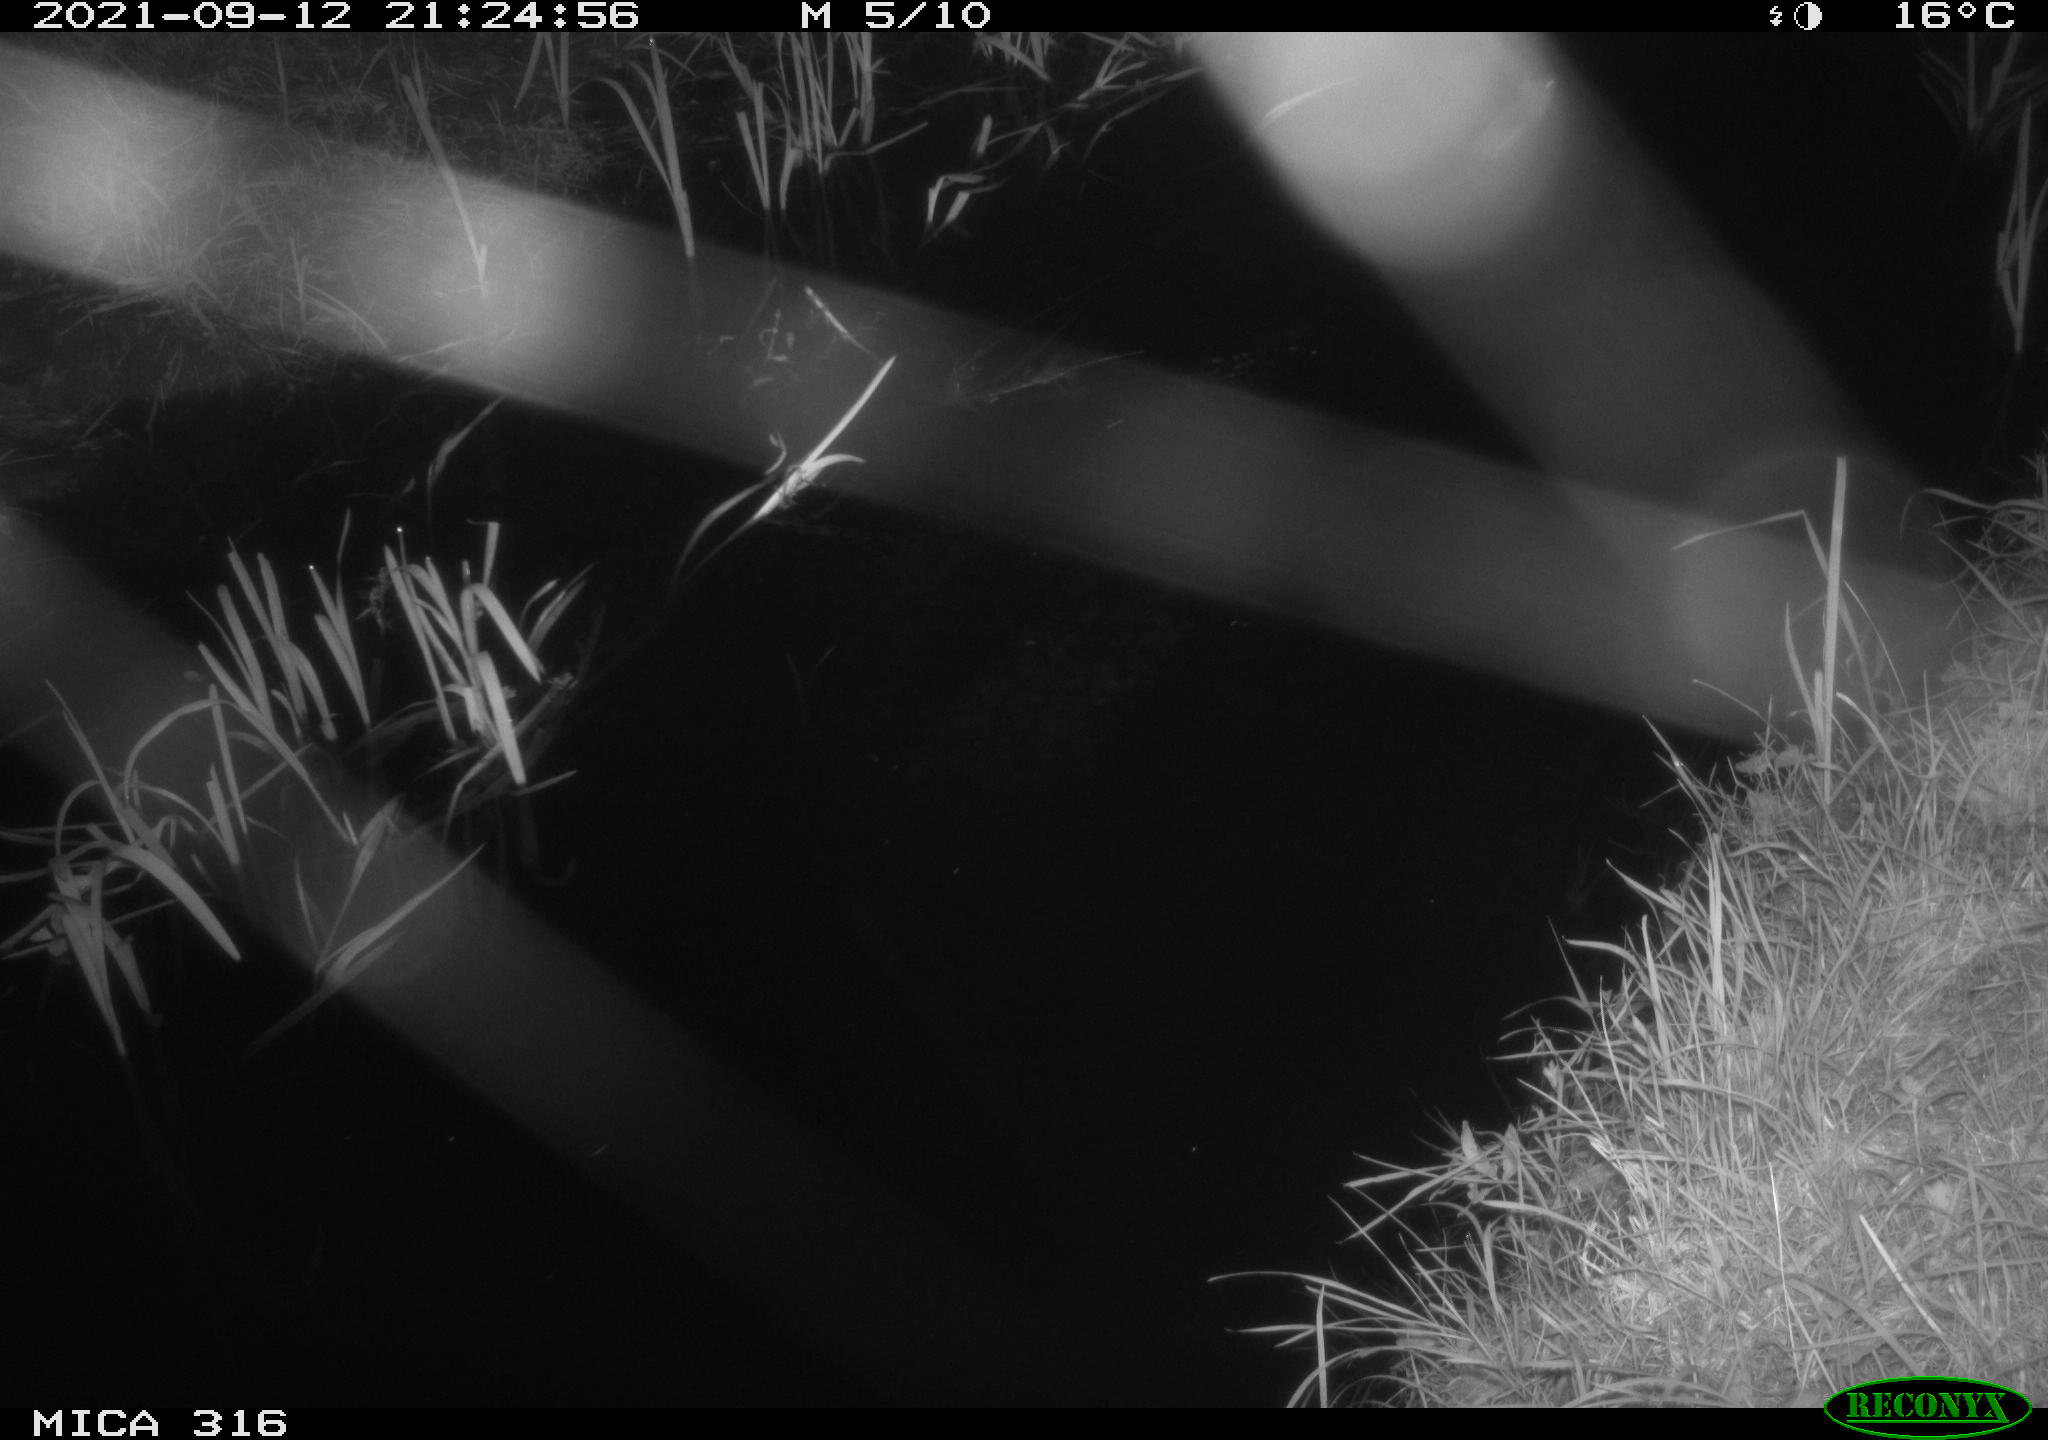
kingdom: Animalia
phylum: Chordata
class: Mammalia
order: Rodentia
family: Muridae
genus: Rattus
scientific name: Rattus norvegicus
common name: Brown rat
